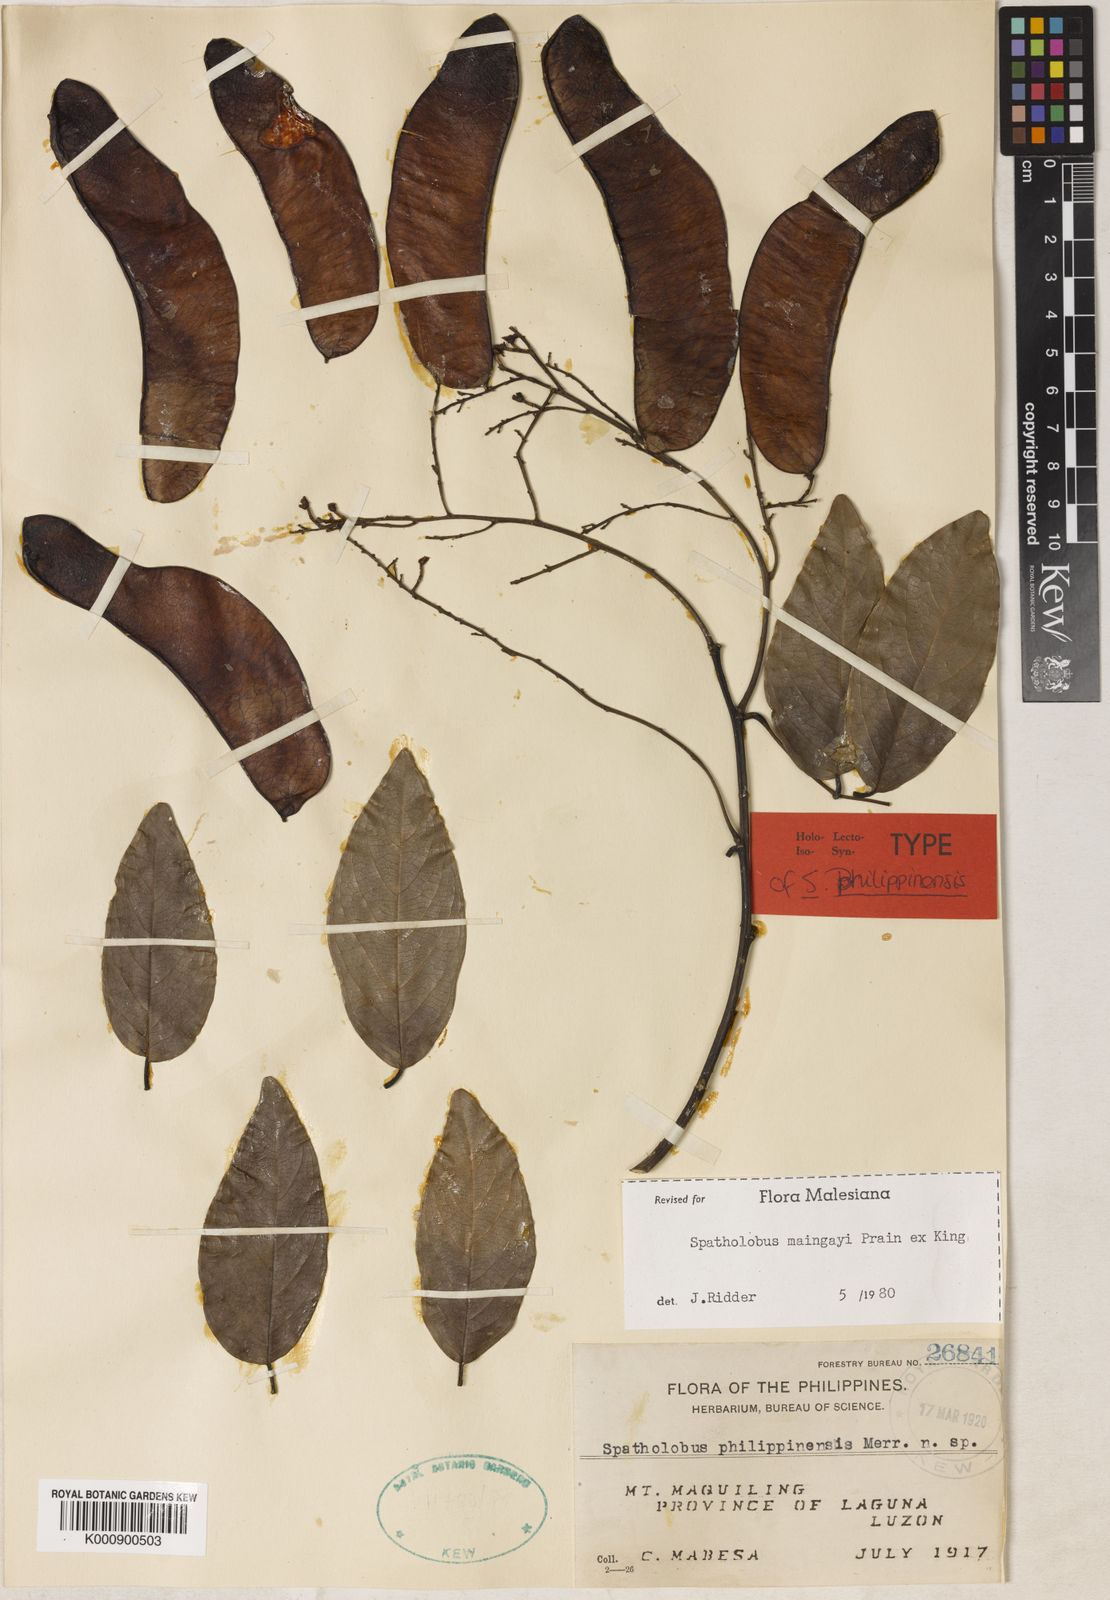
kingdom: Plantae
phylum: Tracheophyta
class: Magnoliopsida
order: Fabales
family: Fabaceae
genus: Spatholobus
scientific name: Spatholobus
